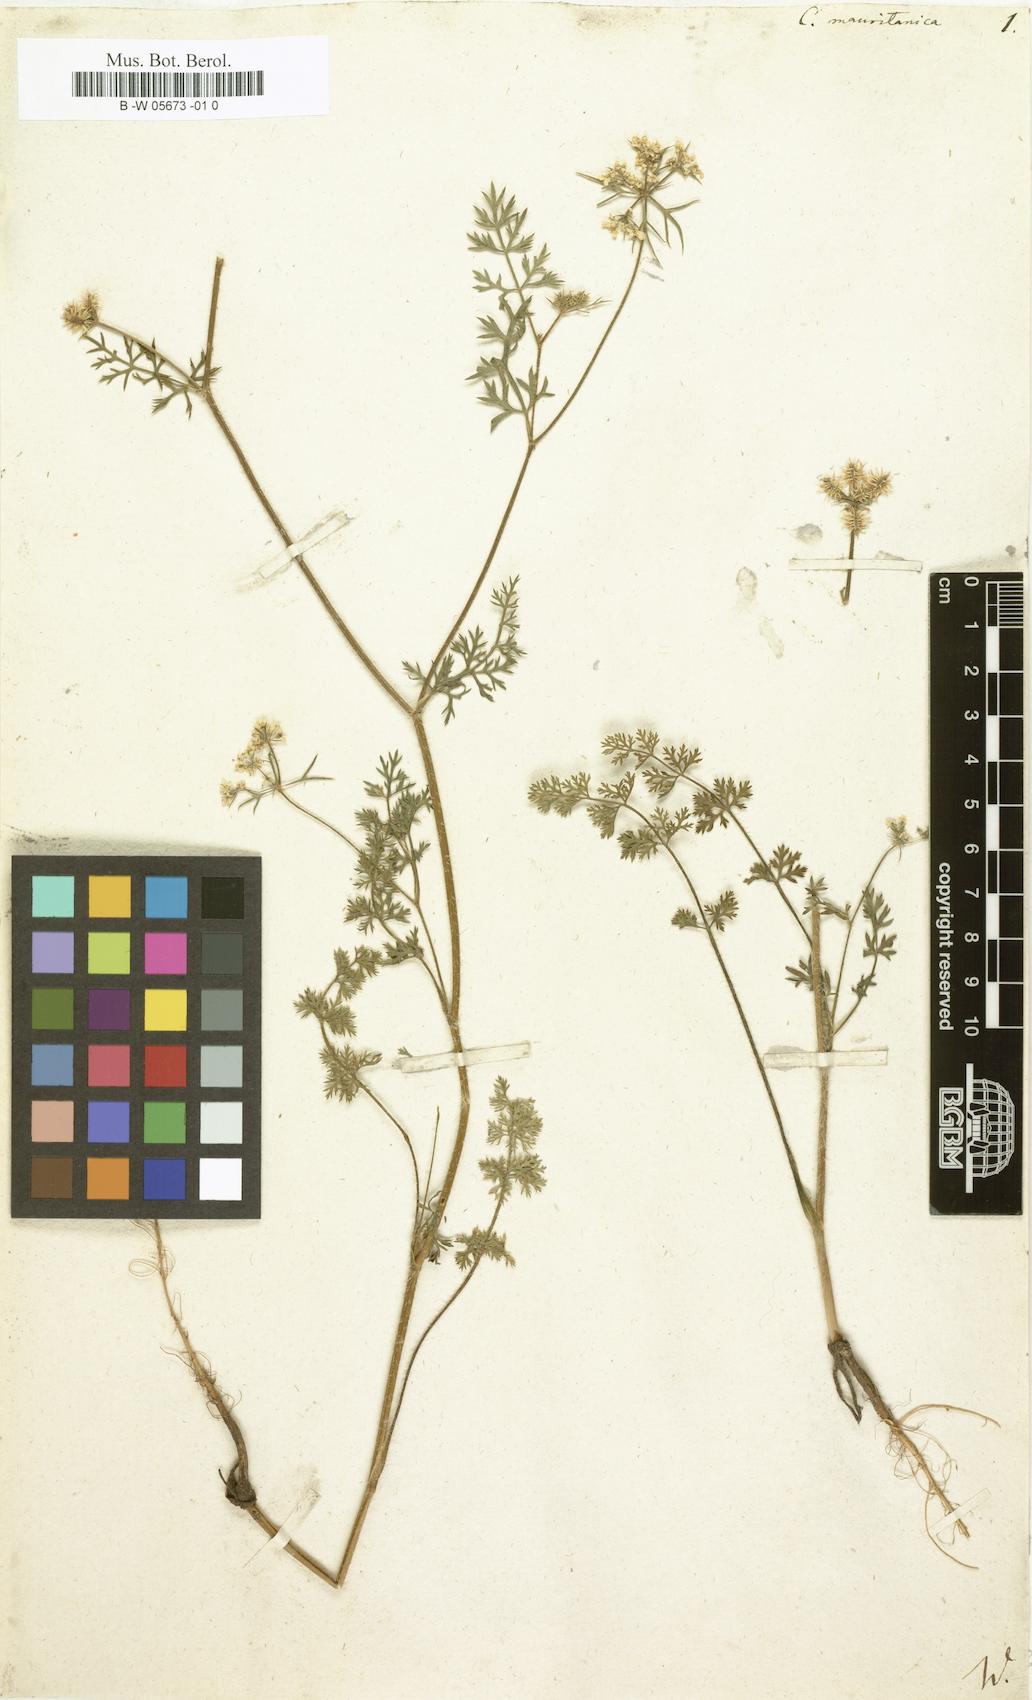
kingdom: Plantae
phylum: Tracheophyta
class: Magnoliopsida
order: Apiales
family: Apiaceae
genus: Torilis
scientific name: Torilis elongata
